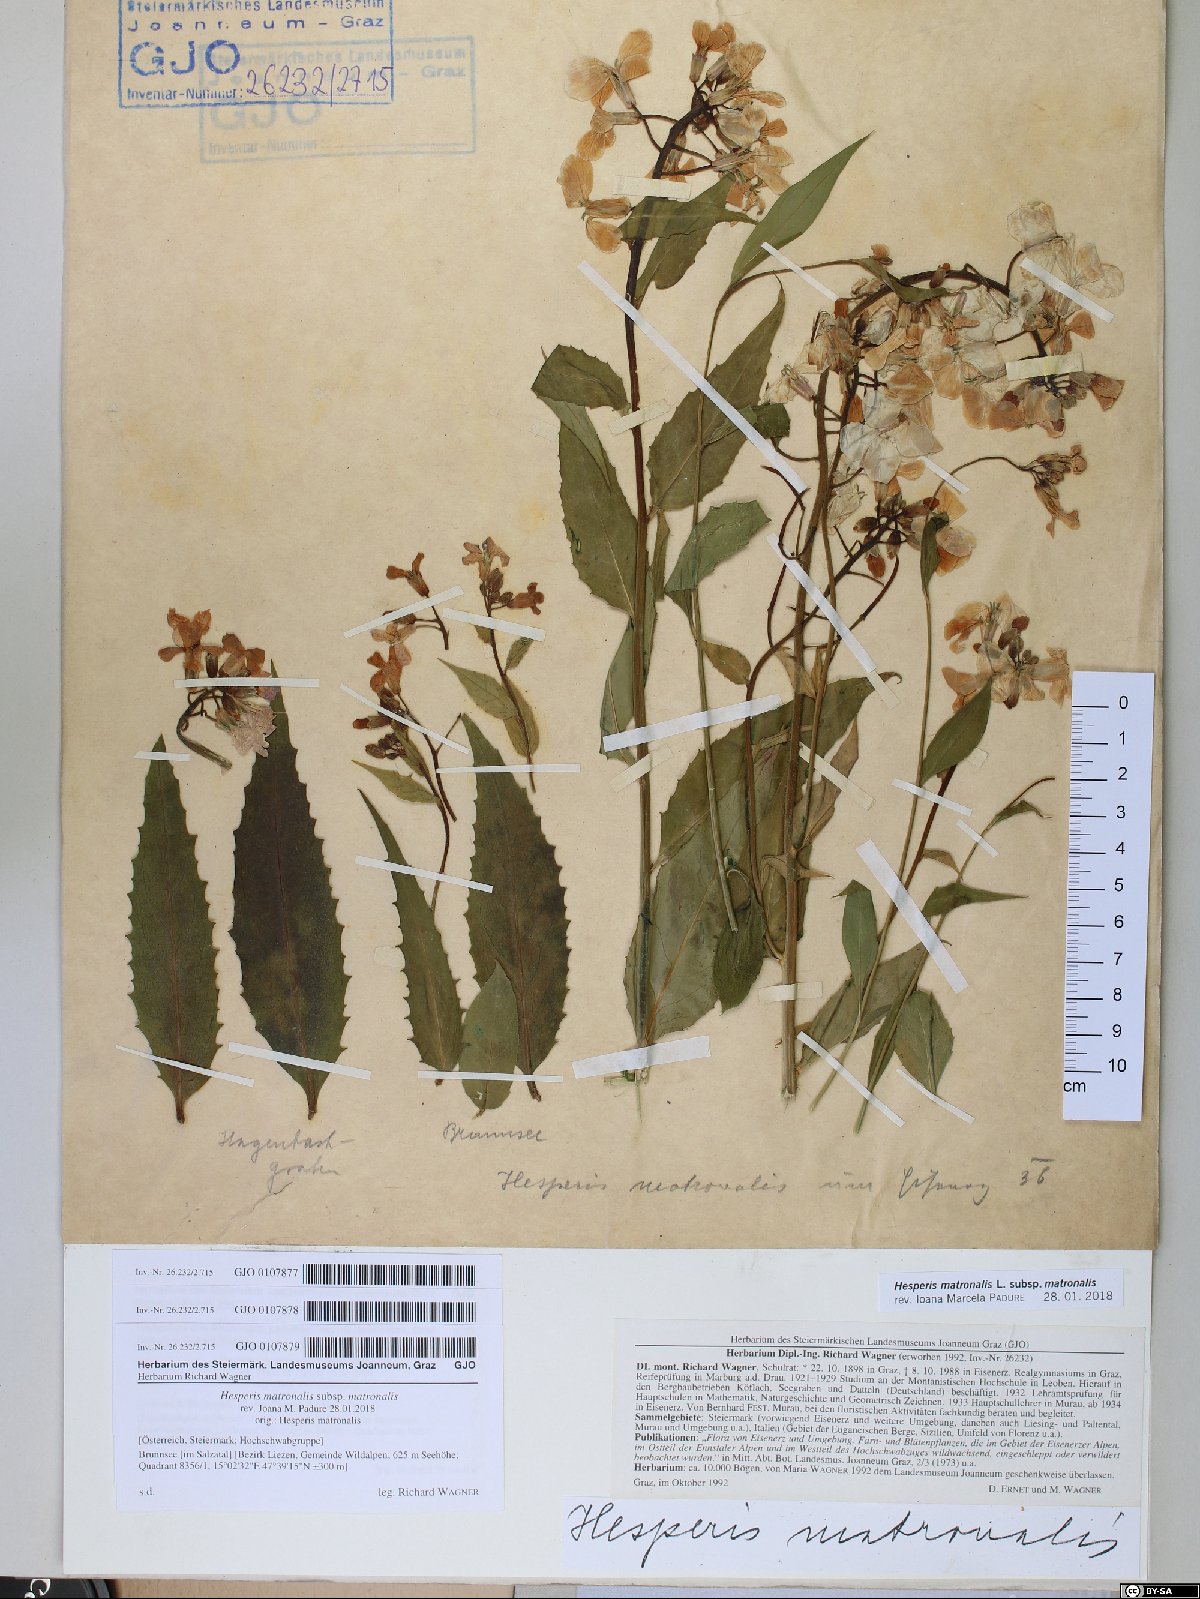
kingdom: Plantae
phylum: Tracheophyta
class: Magnoliopsida
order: Brassicales
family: Brassicaceae
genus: Hesperis
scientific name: Hesperis matronalis
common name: Dame's-violet
